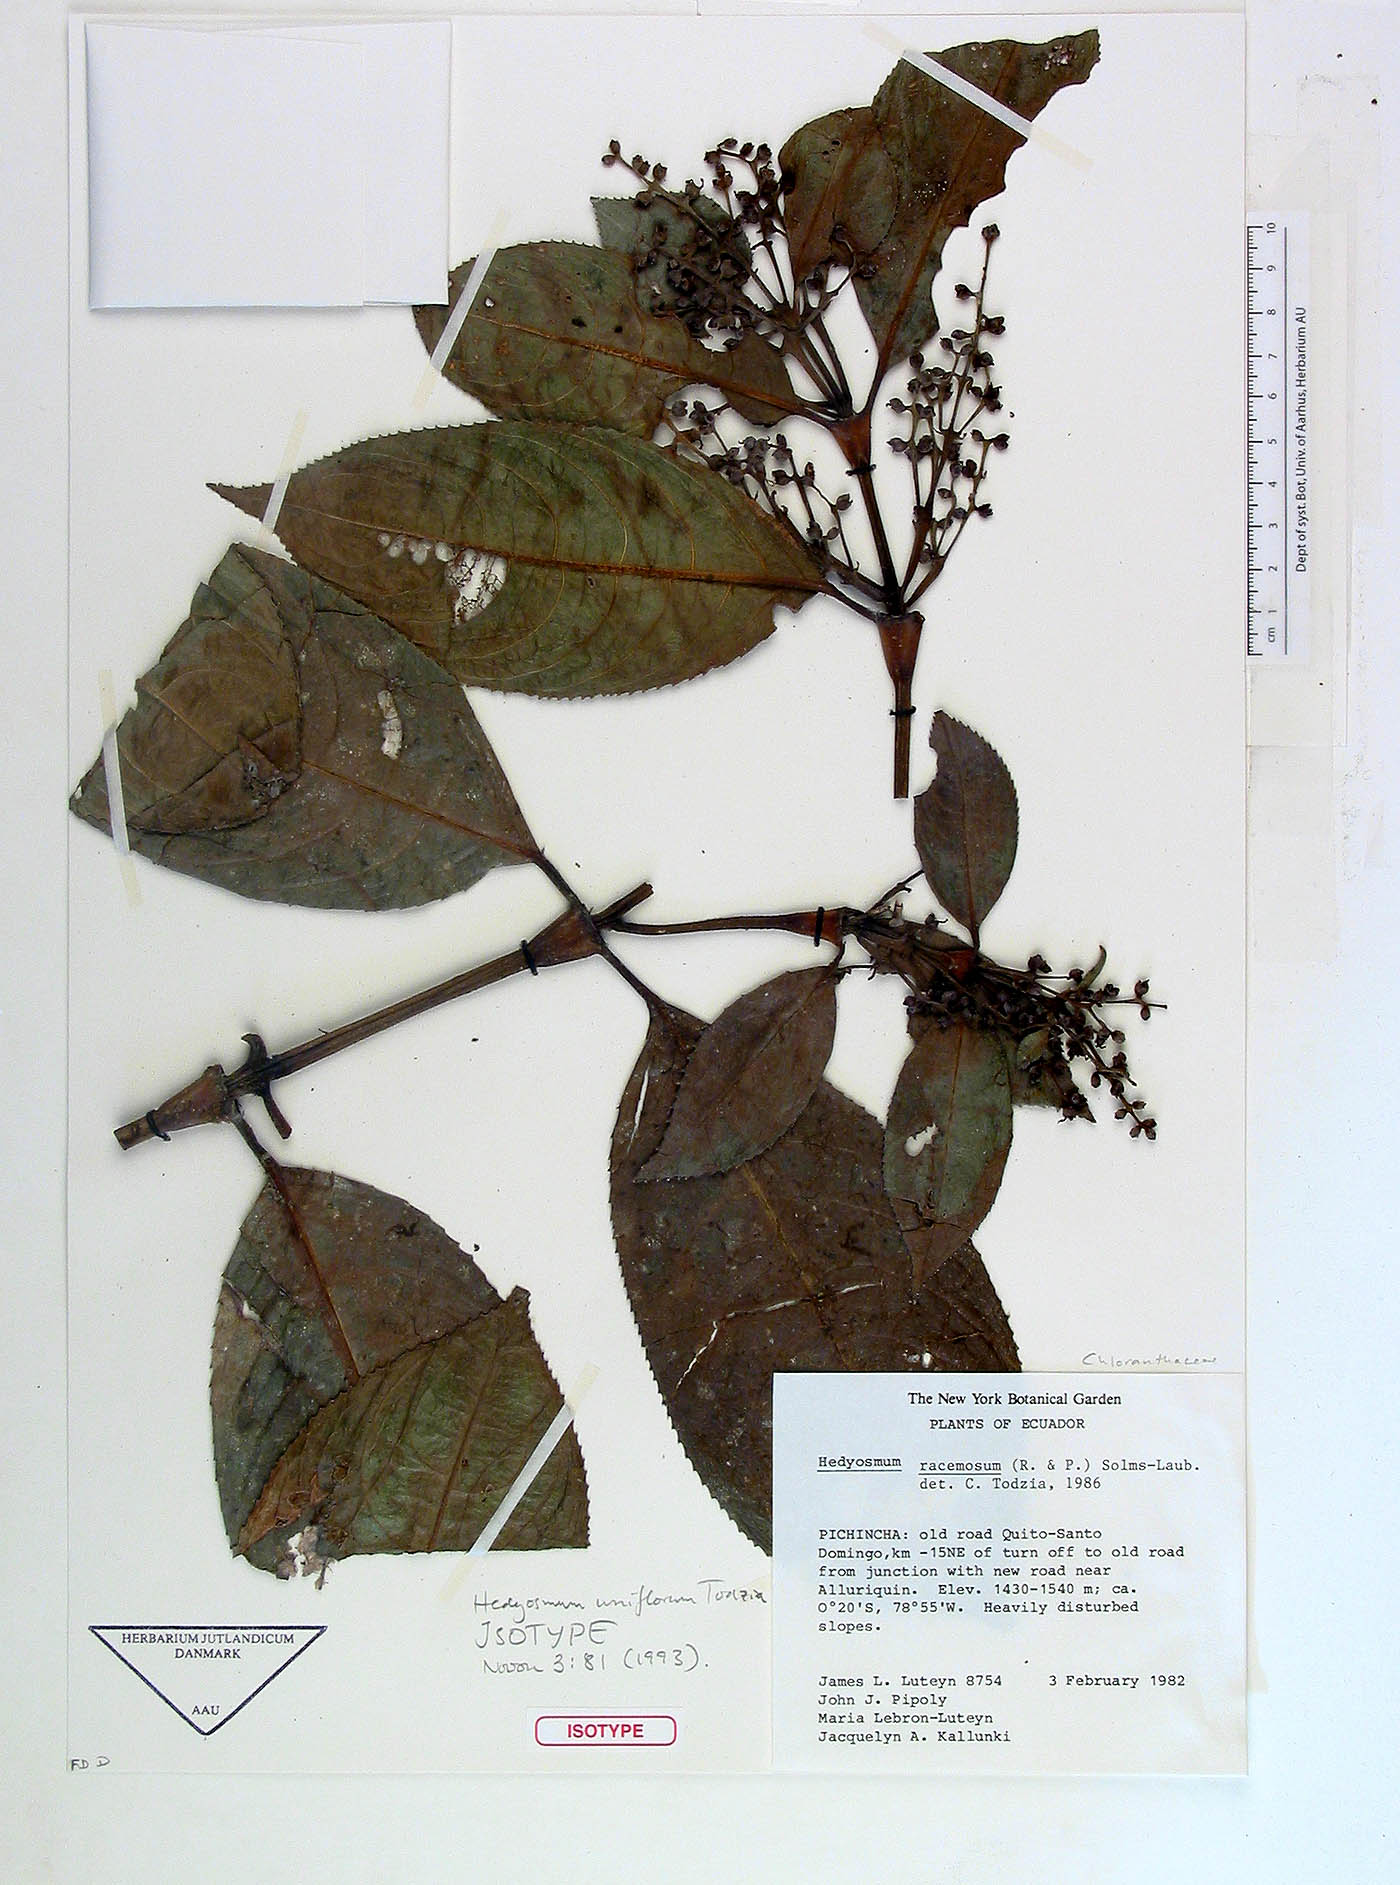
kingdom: Plantae
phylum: Tracheophyta
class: Magnoliopsida
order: Chloranthales
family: Chloranthaceae
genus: Hedyosmum
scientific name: Hedyosmum uniflorum
